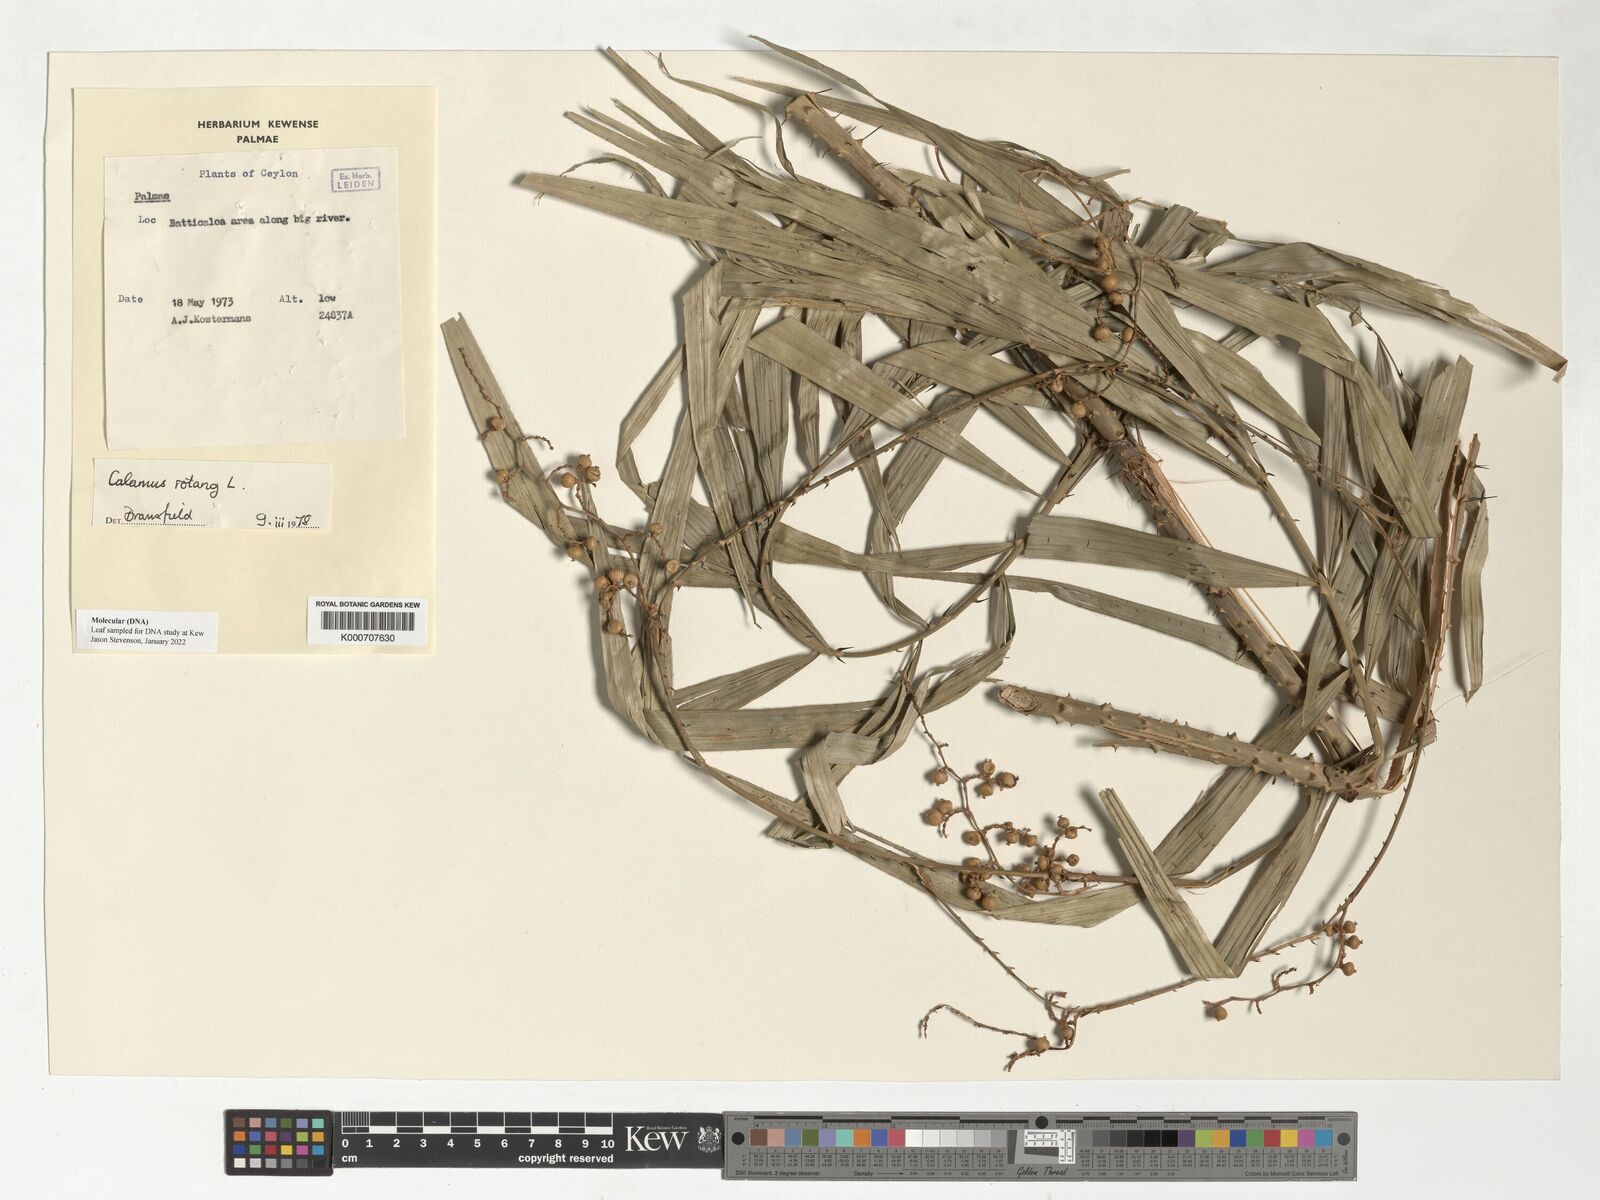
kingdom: Plantae
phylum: Tracheophyta
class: Liliopsida
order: Arecales
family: Arecaceae
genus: Calamus
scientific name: Calamus rotang
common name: Rattan cane
